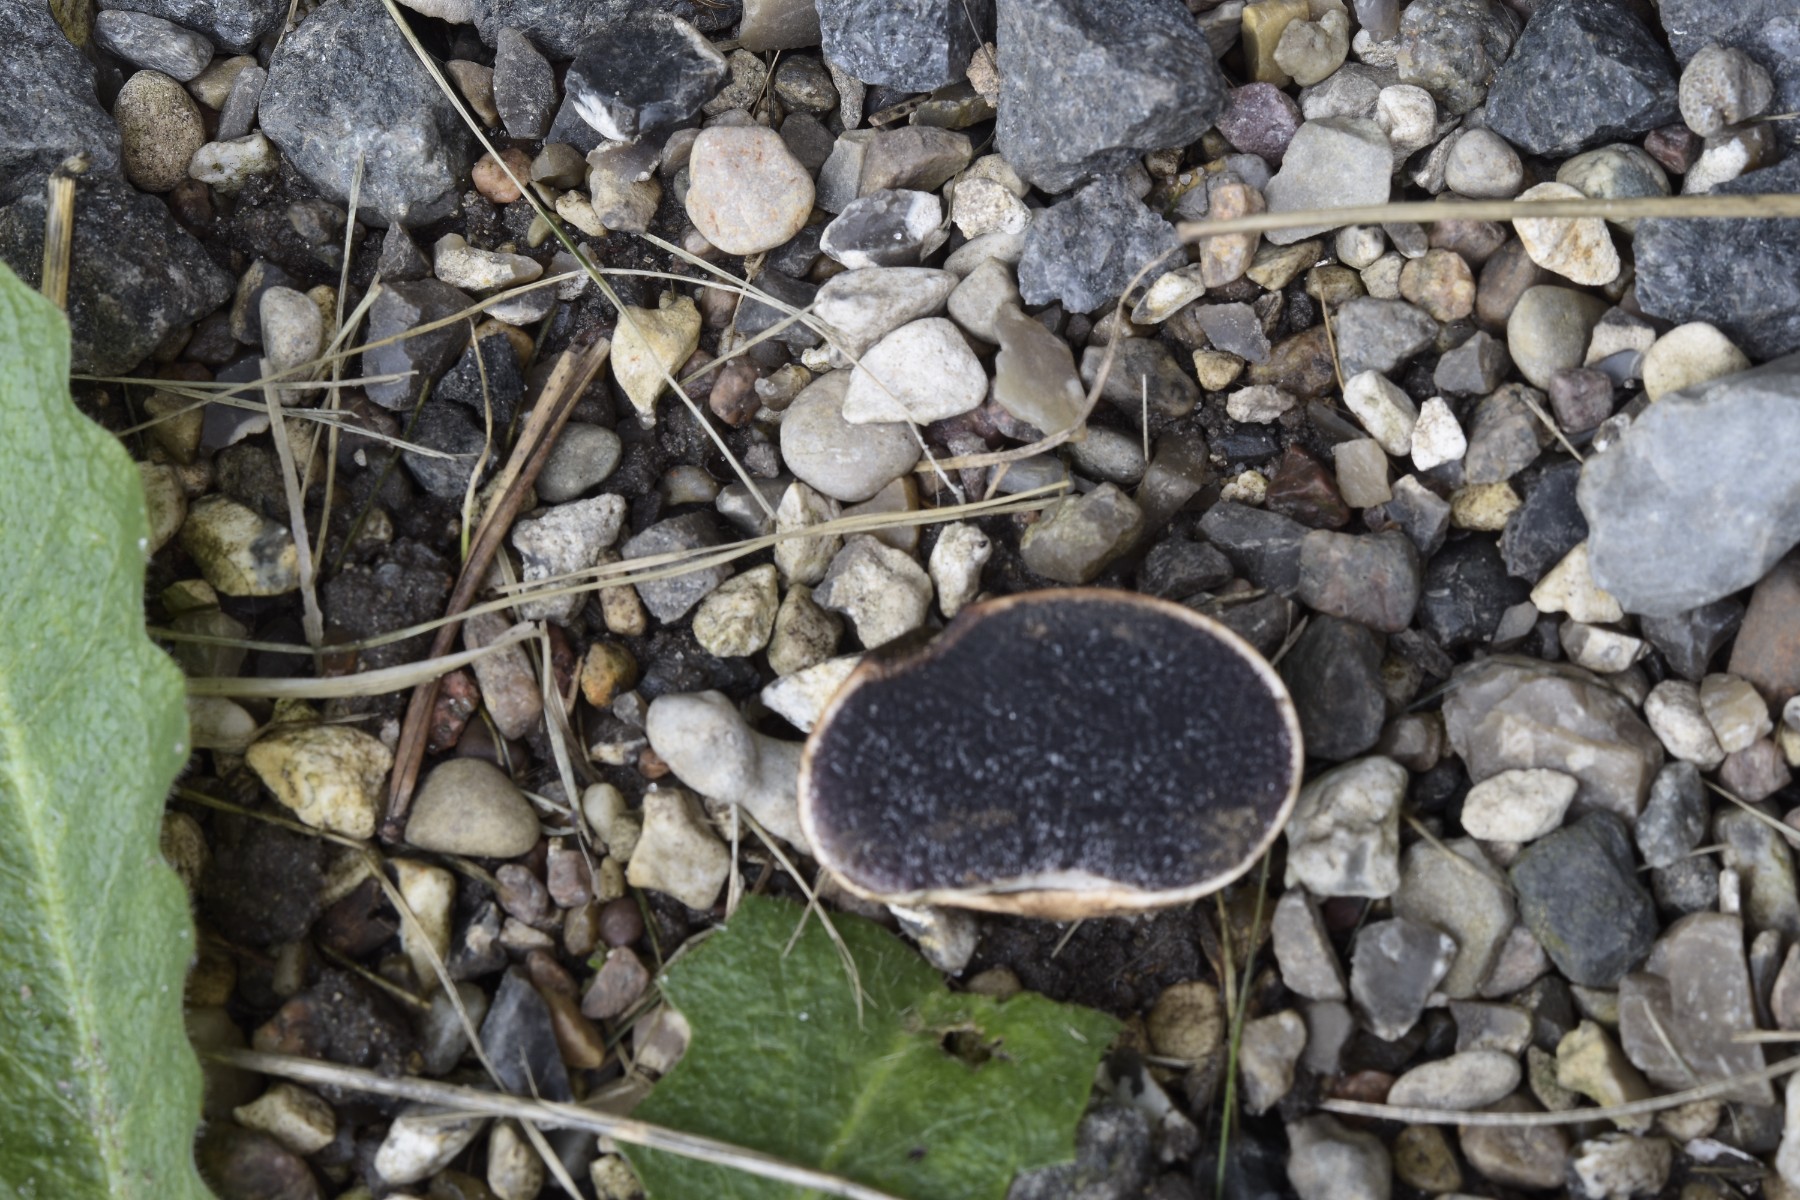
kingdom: Fungi
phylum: Basidiomycota
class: Agaricomycetes
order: Boletales
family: Sclerodermataceae
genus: Scleroderma
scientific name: Scleroderma bovista
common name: bovist-bruskbold
